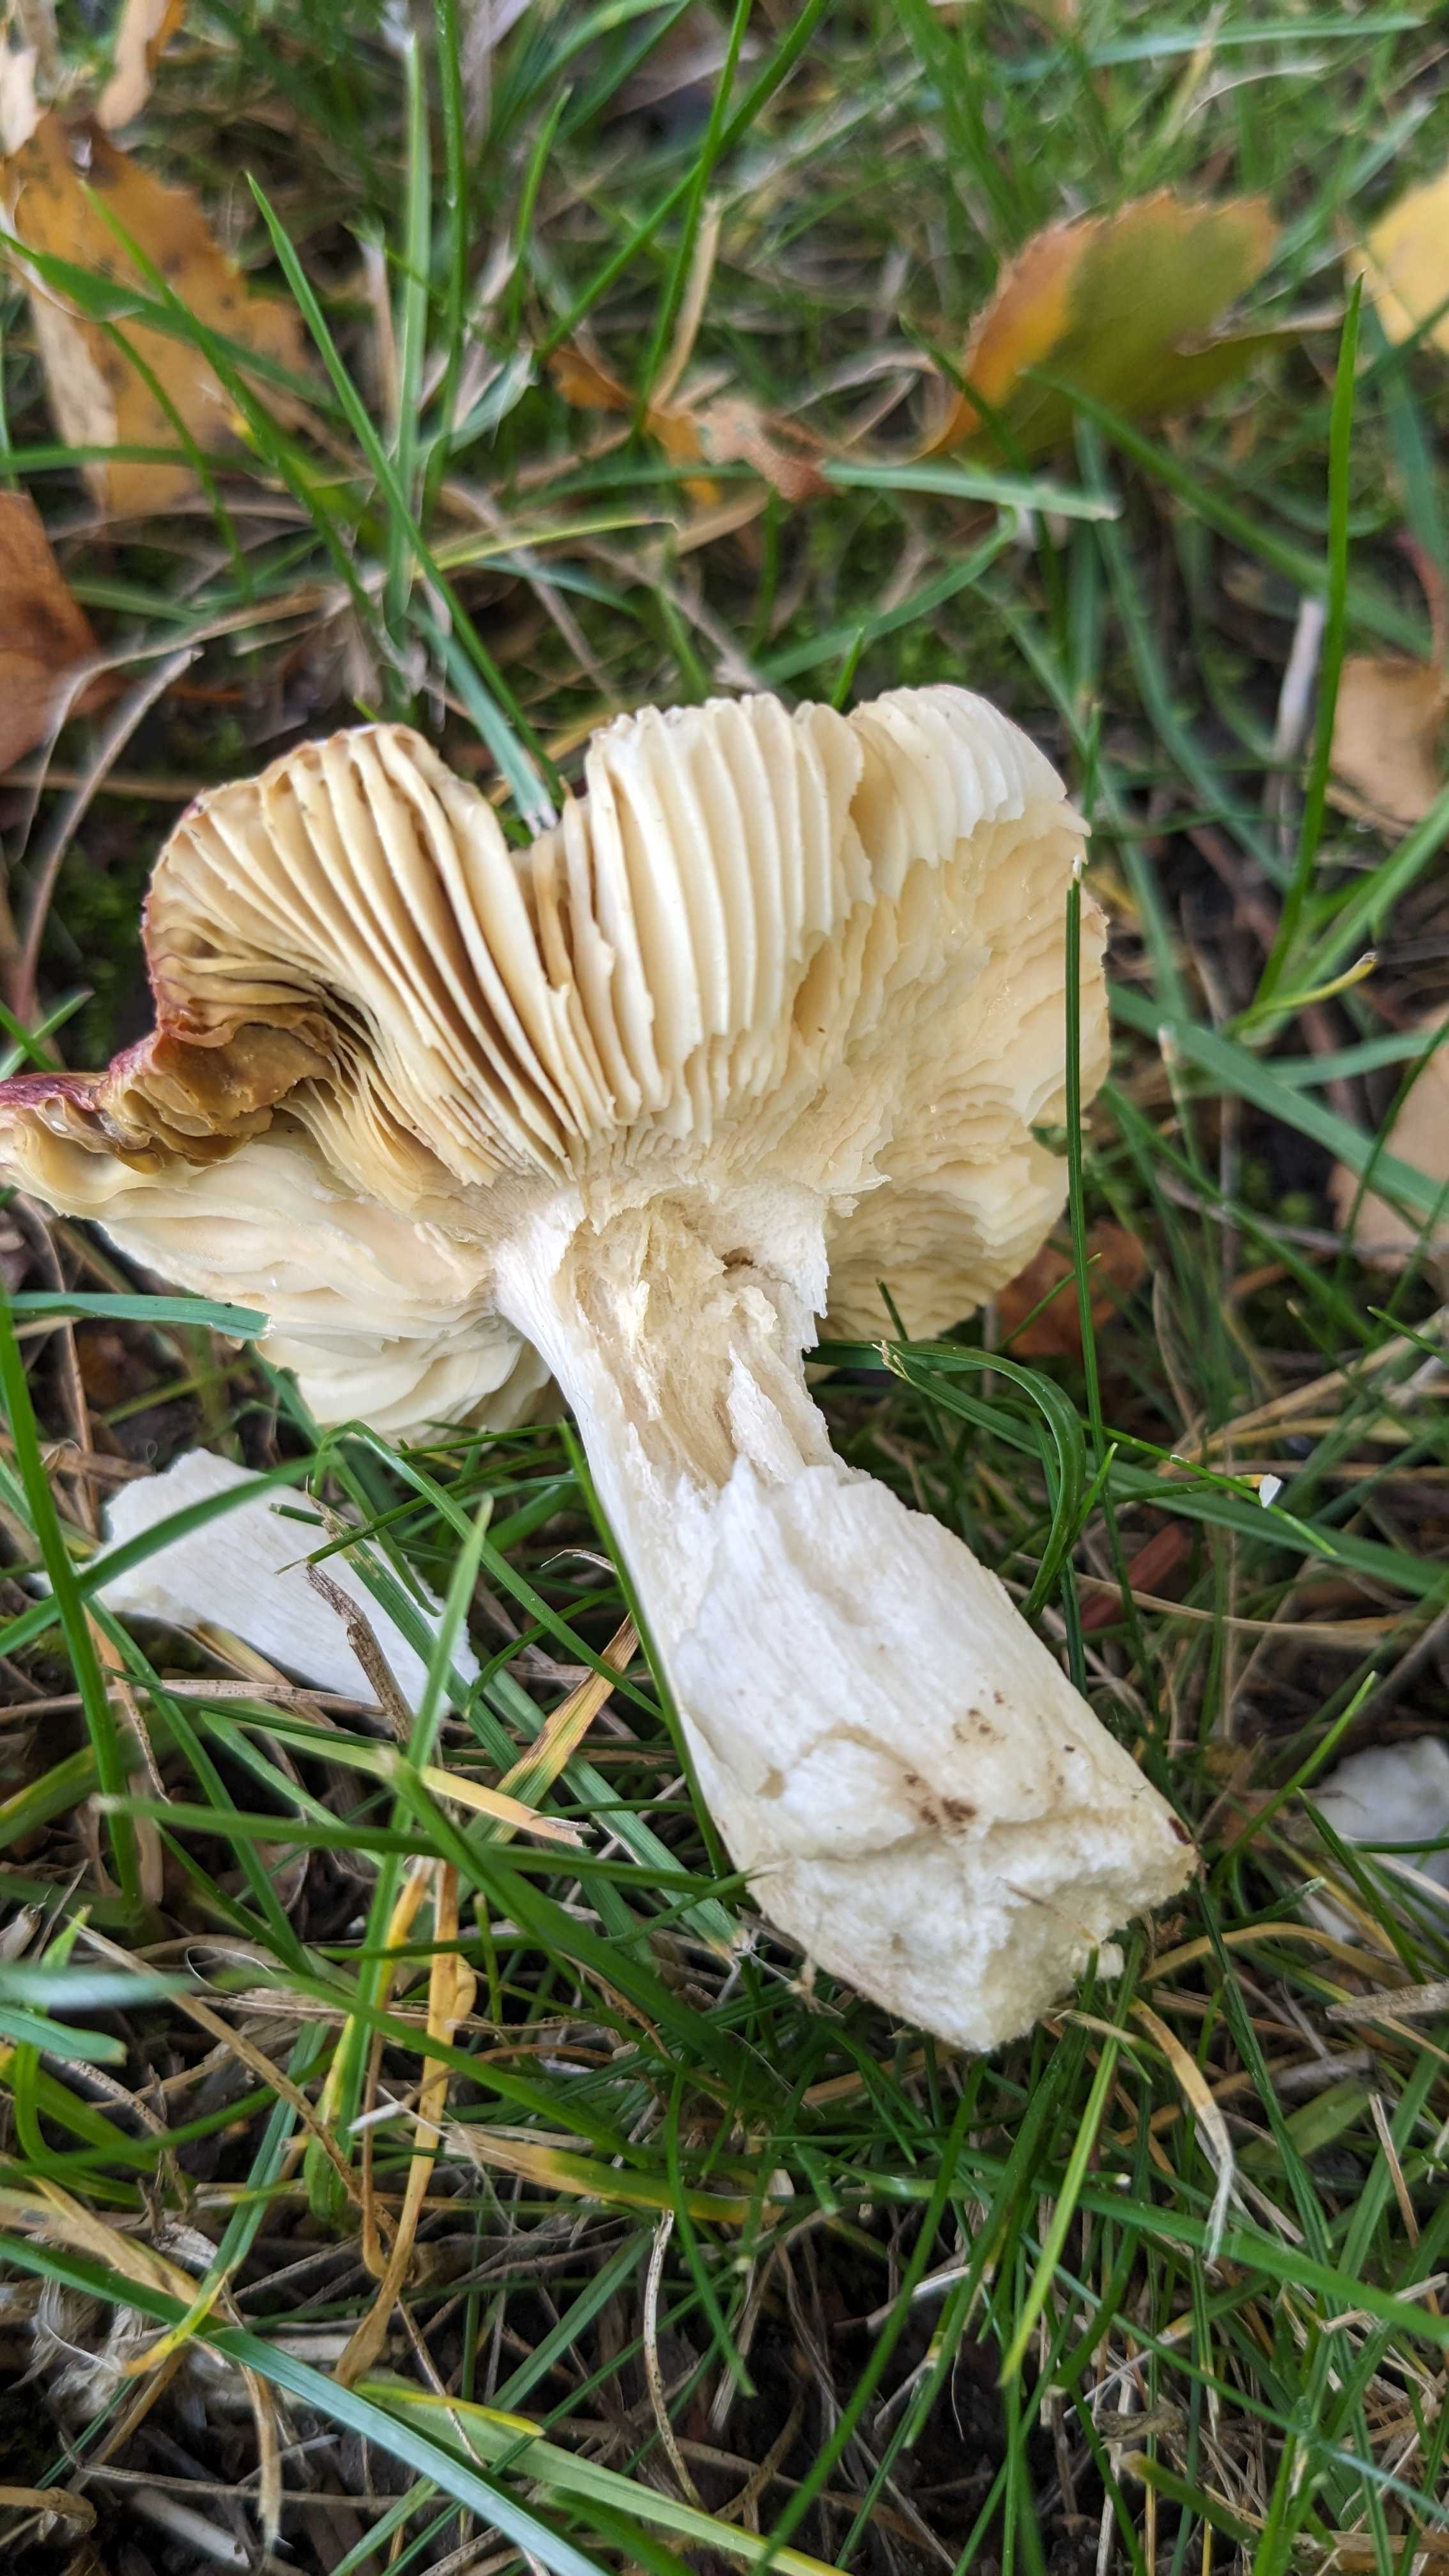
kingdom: Fungi
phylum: Basidiomycota
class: Agaricomycetes
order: Russulales
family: Russulaceae
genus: Russula
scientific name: Russula velenovskyi
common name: orangerød skørhat
